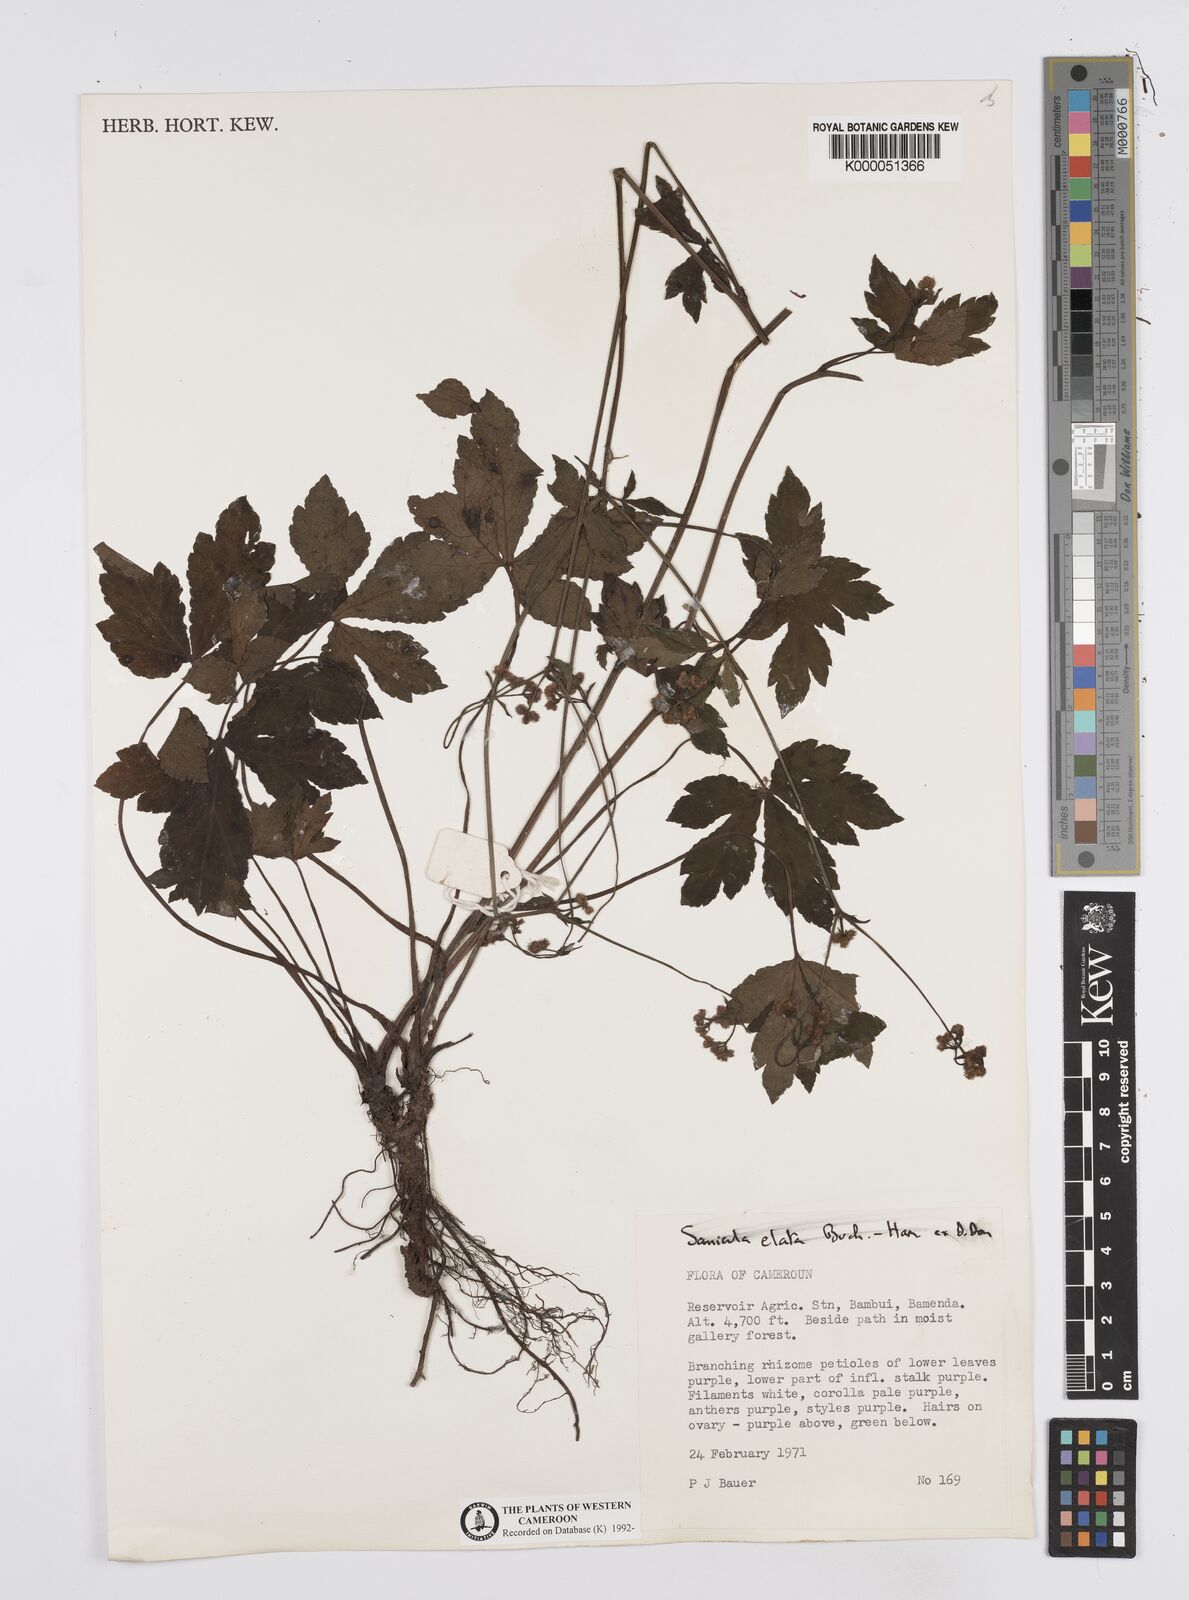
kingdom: Plantae
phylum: Tracheophyta
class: Magnoliopsida
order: Apiales
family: Apiaceae
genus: Sanicula
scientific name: Sanicula
